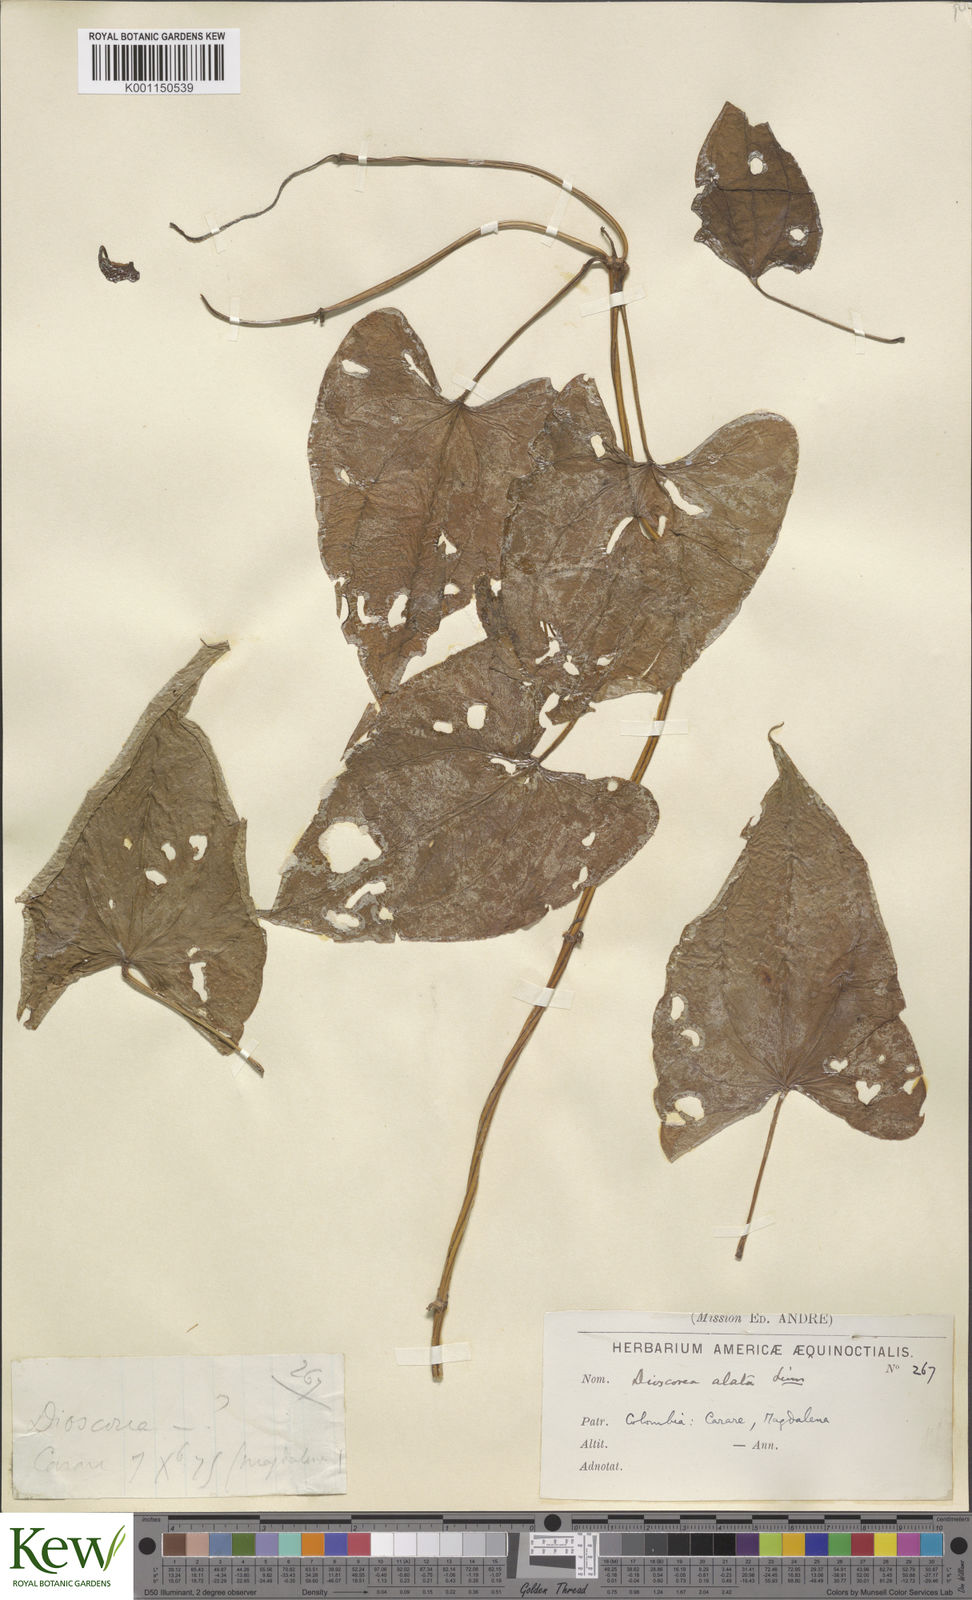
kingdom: Plantae
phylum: Tracheophyta
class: Liliopsida
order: Dioscoreales
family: Dioscoreaceae
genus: Dioscorea
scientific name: Dioscorea alata
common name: Water yam
